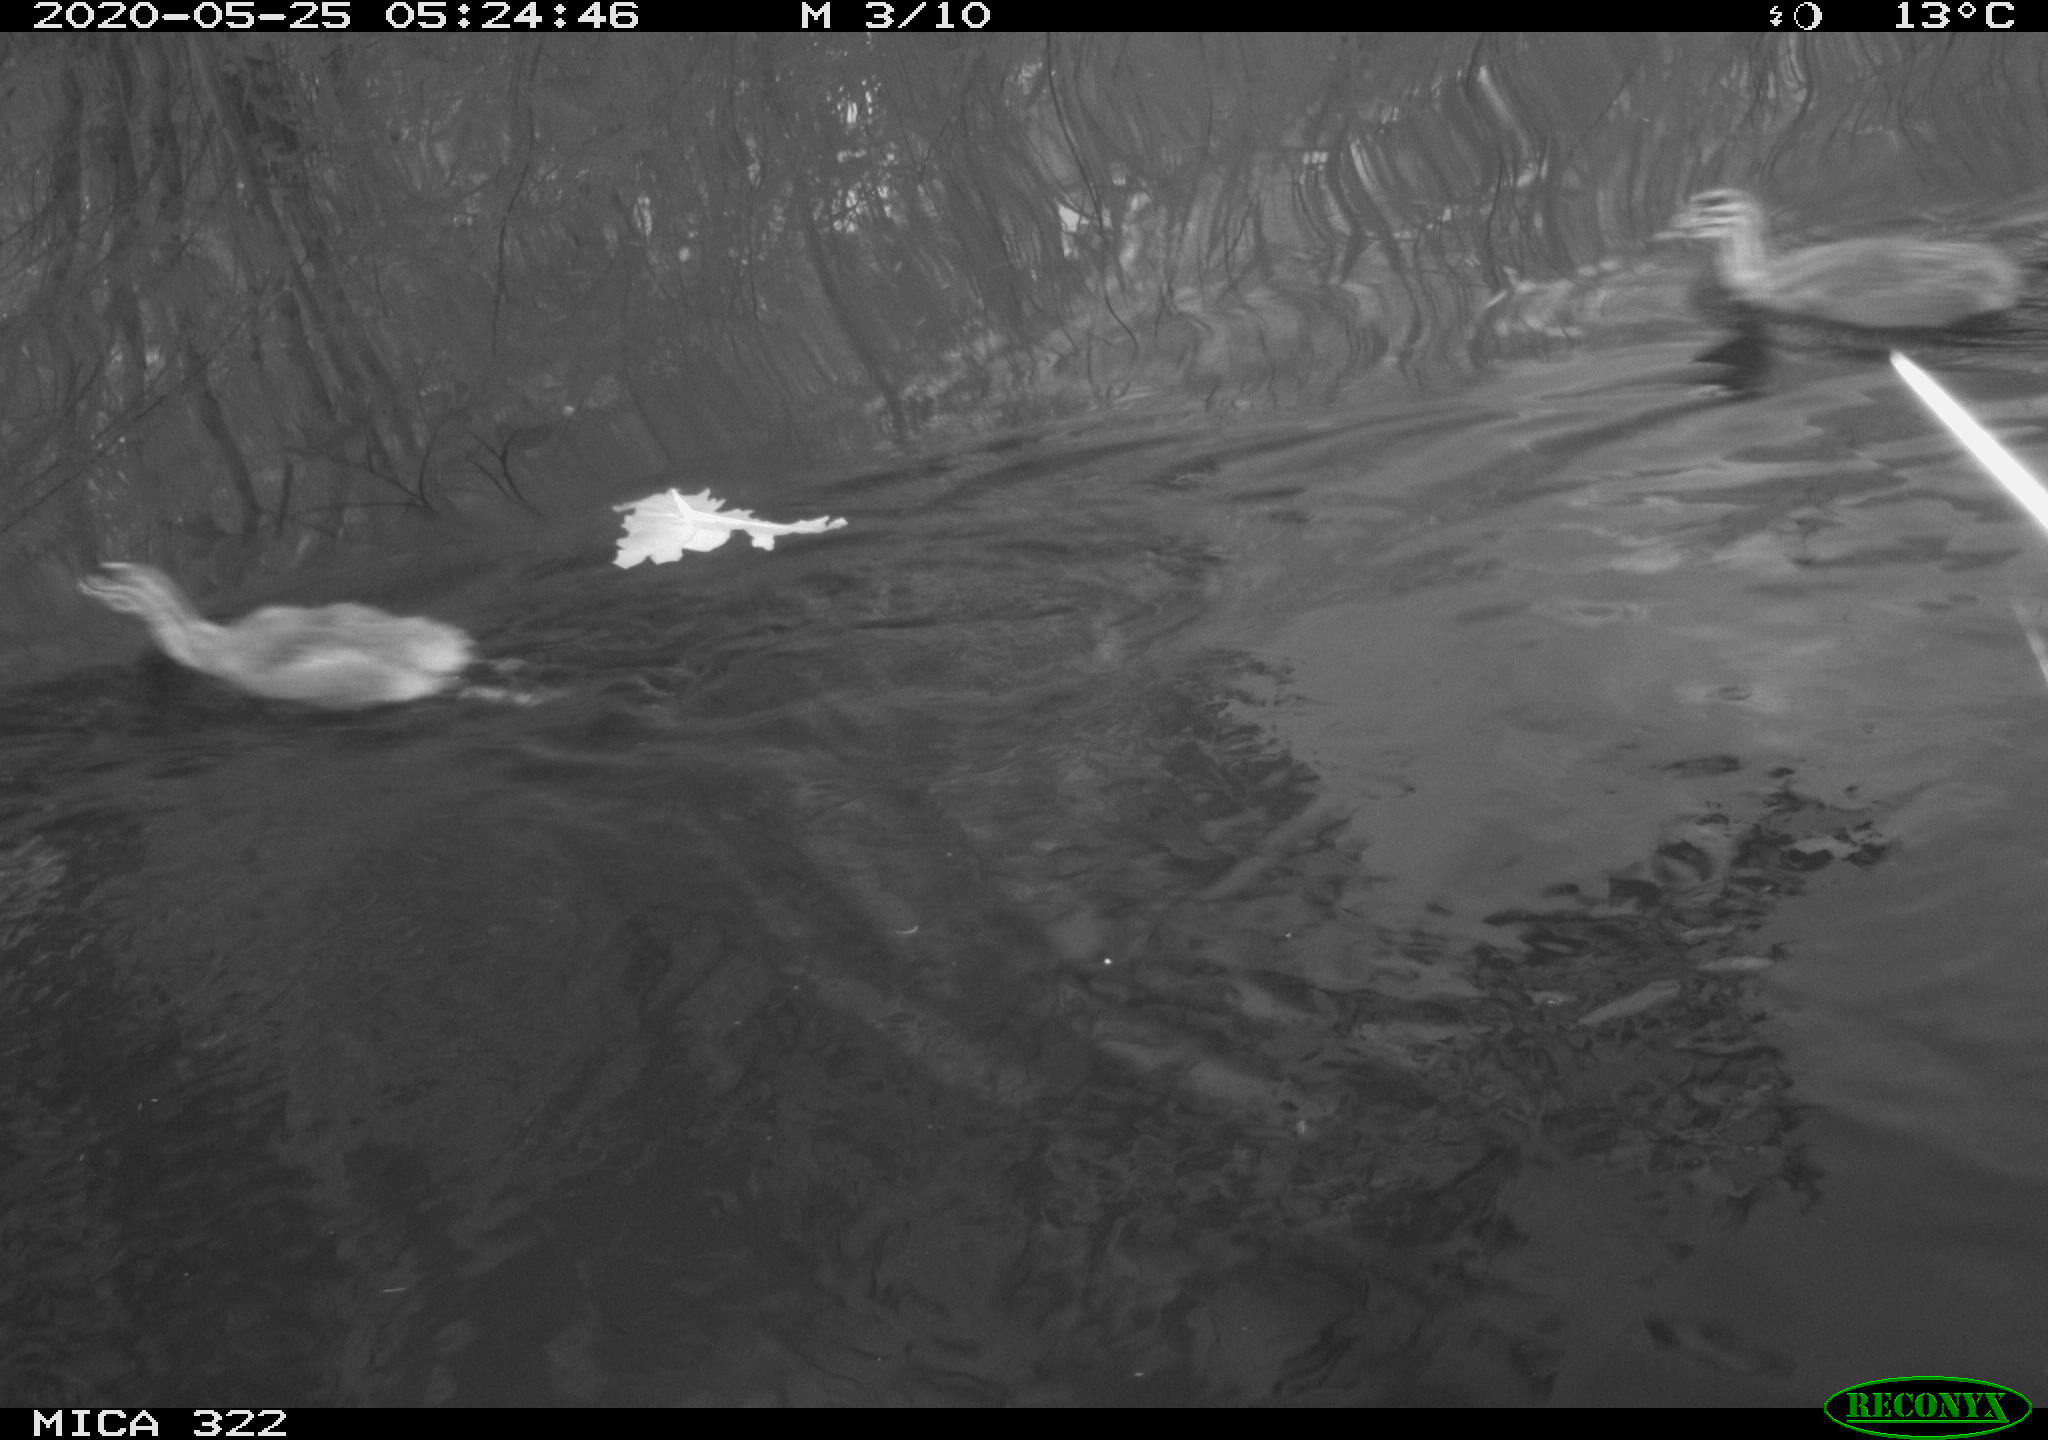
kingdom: Animalia
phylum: Chordata
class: Aves
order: Podicipediformes
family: Podicipedidae
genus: Podiceps
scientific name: Podiceps cristatus
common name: Great crested grebe
